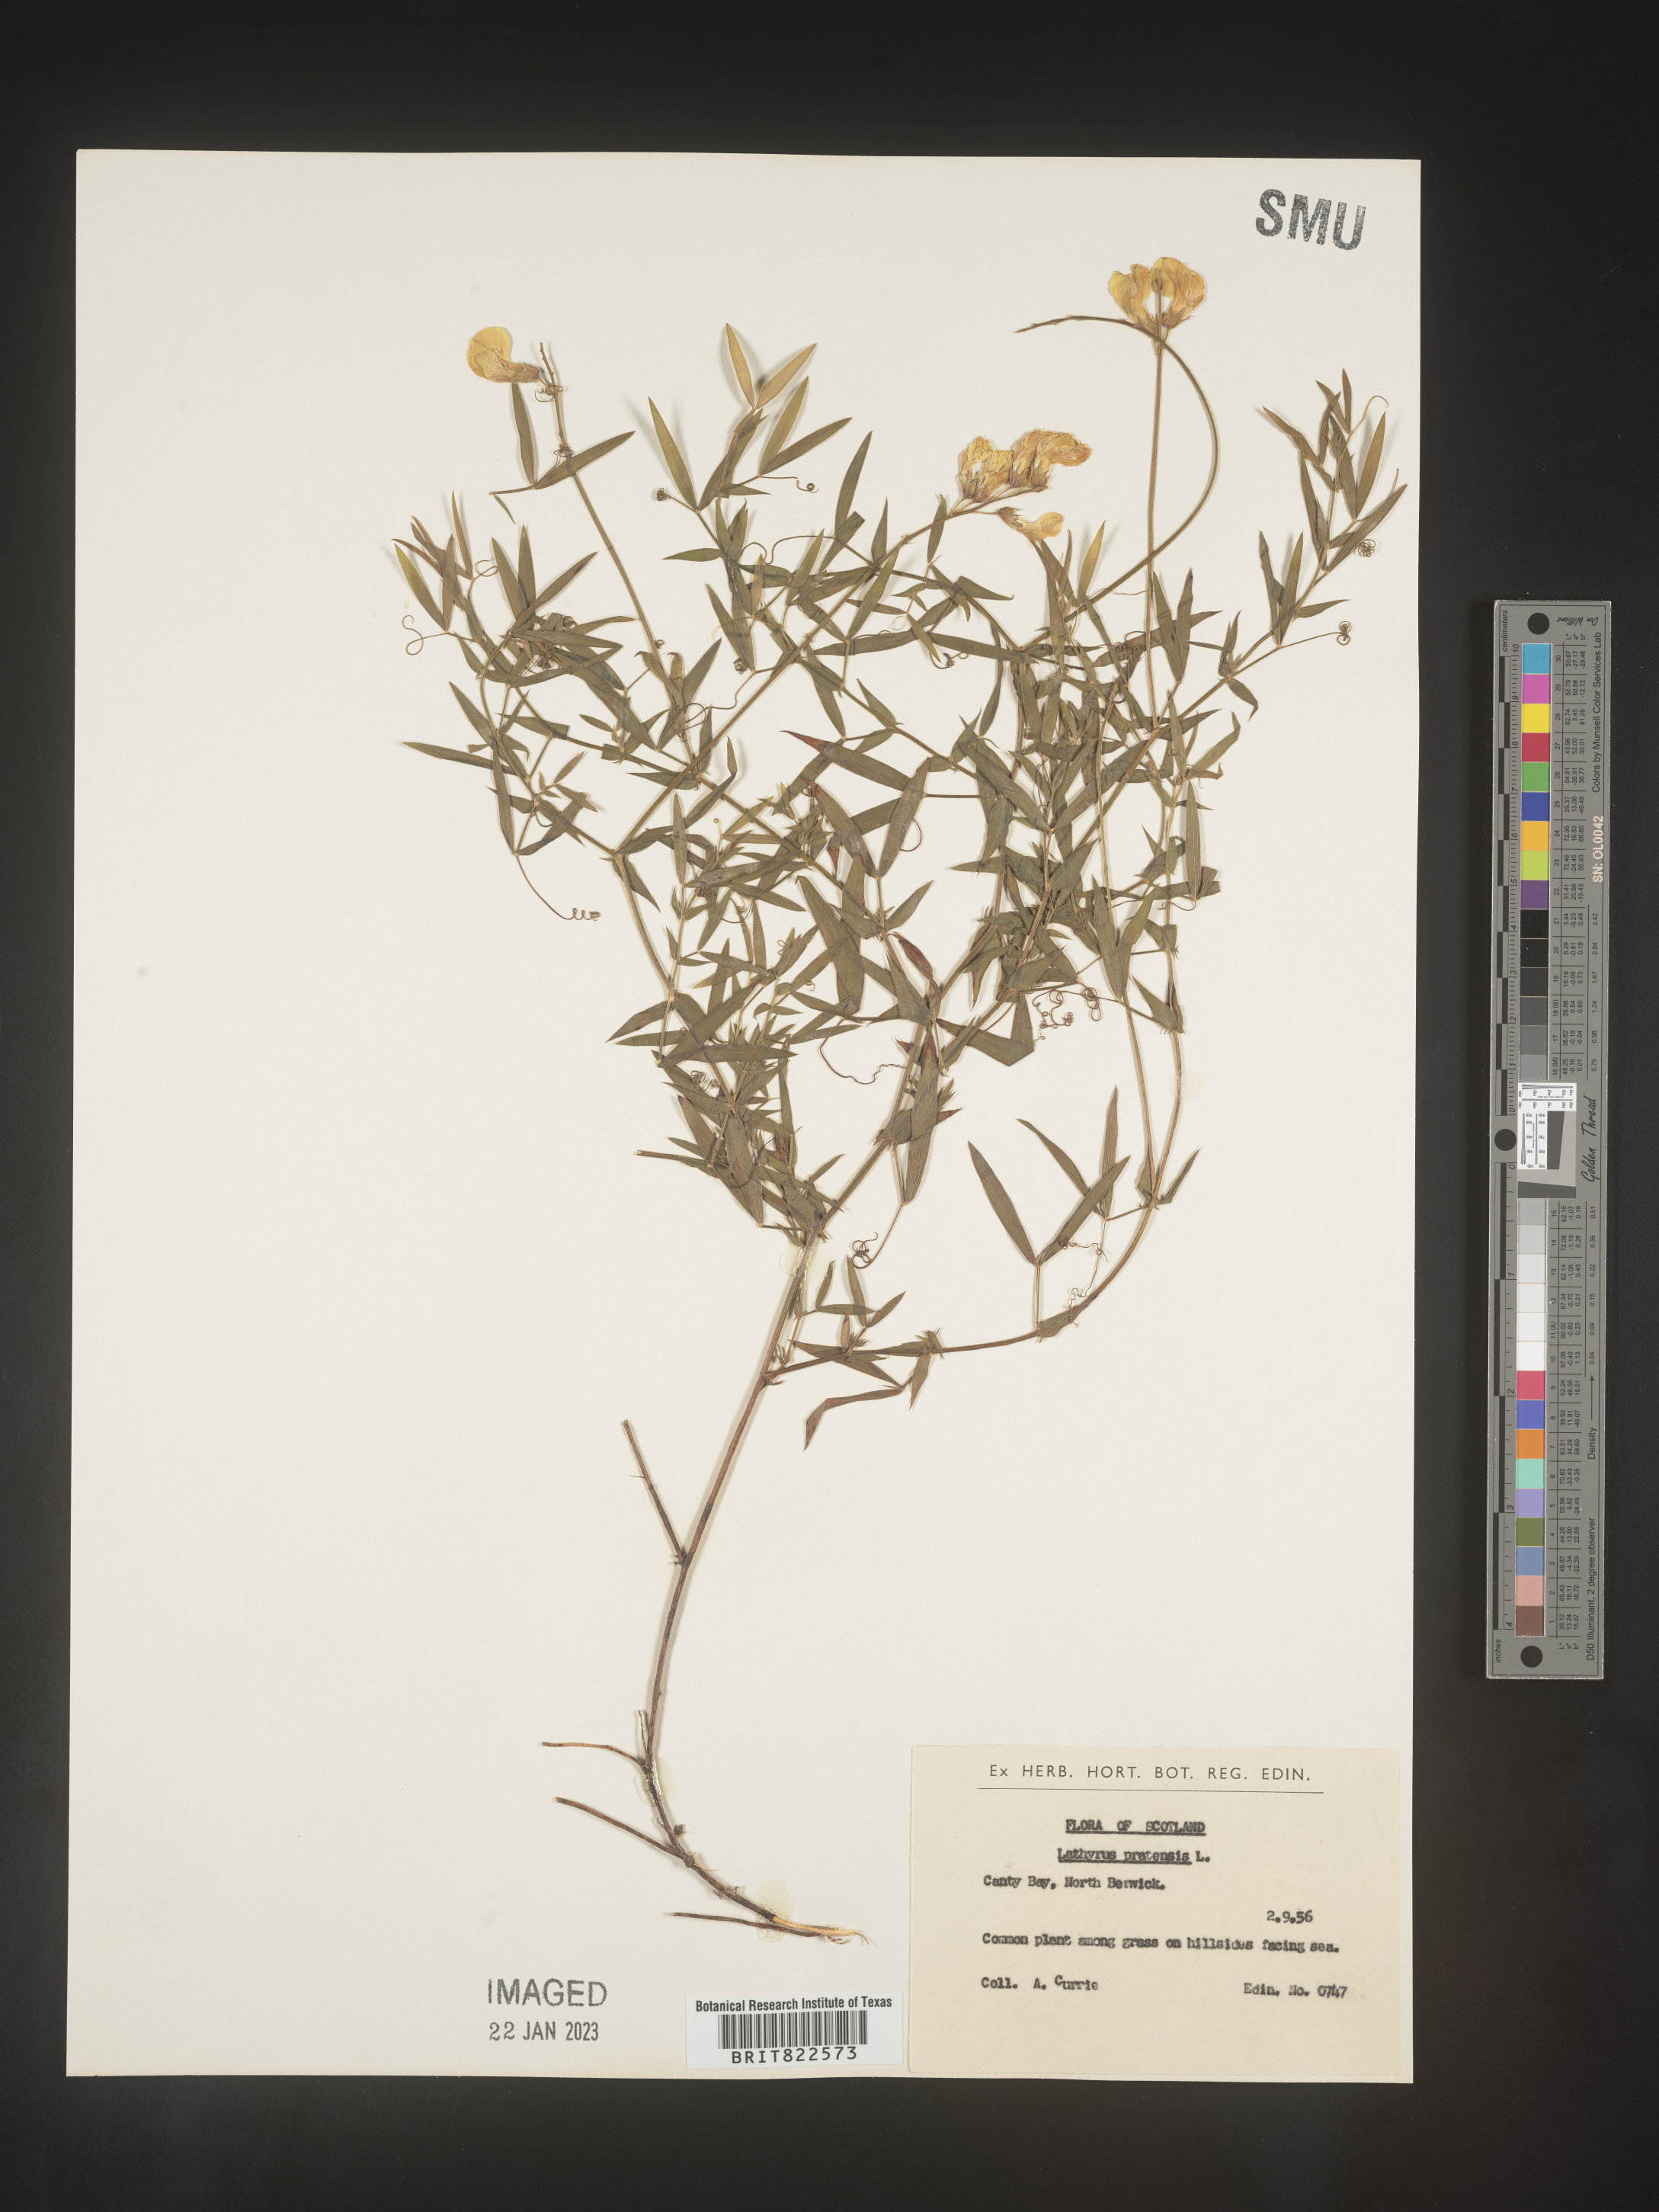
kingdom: Plantae
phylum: Tracheophyta
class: Magnoliopsida
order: Fabales
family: Fabaceae
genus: Lathyrus
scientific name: Lathyrus
